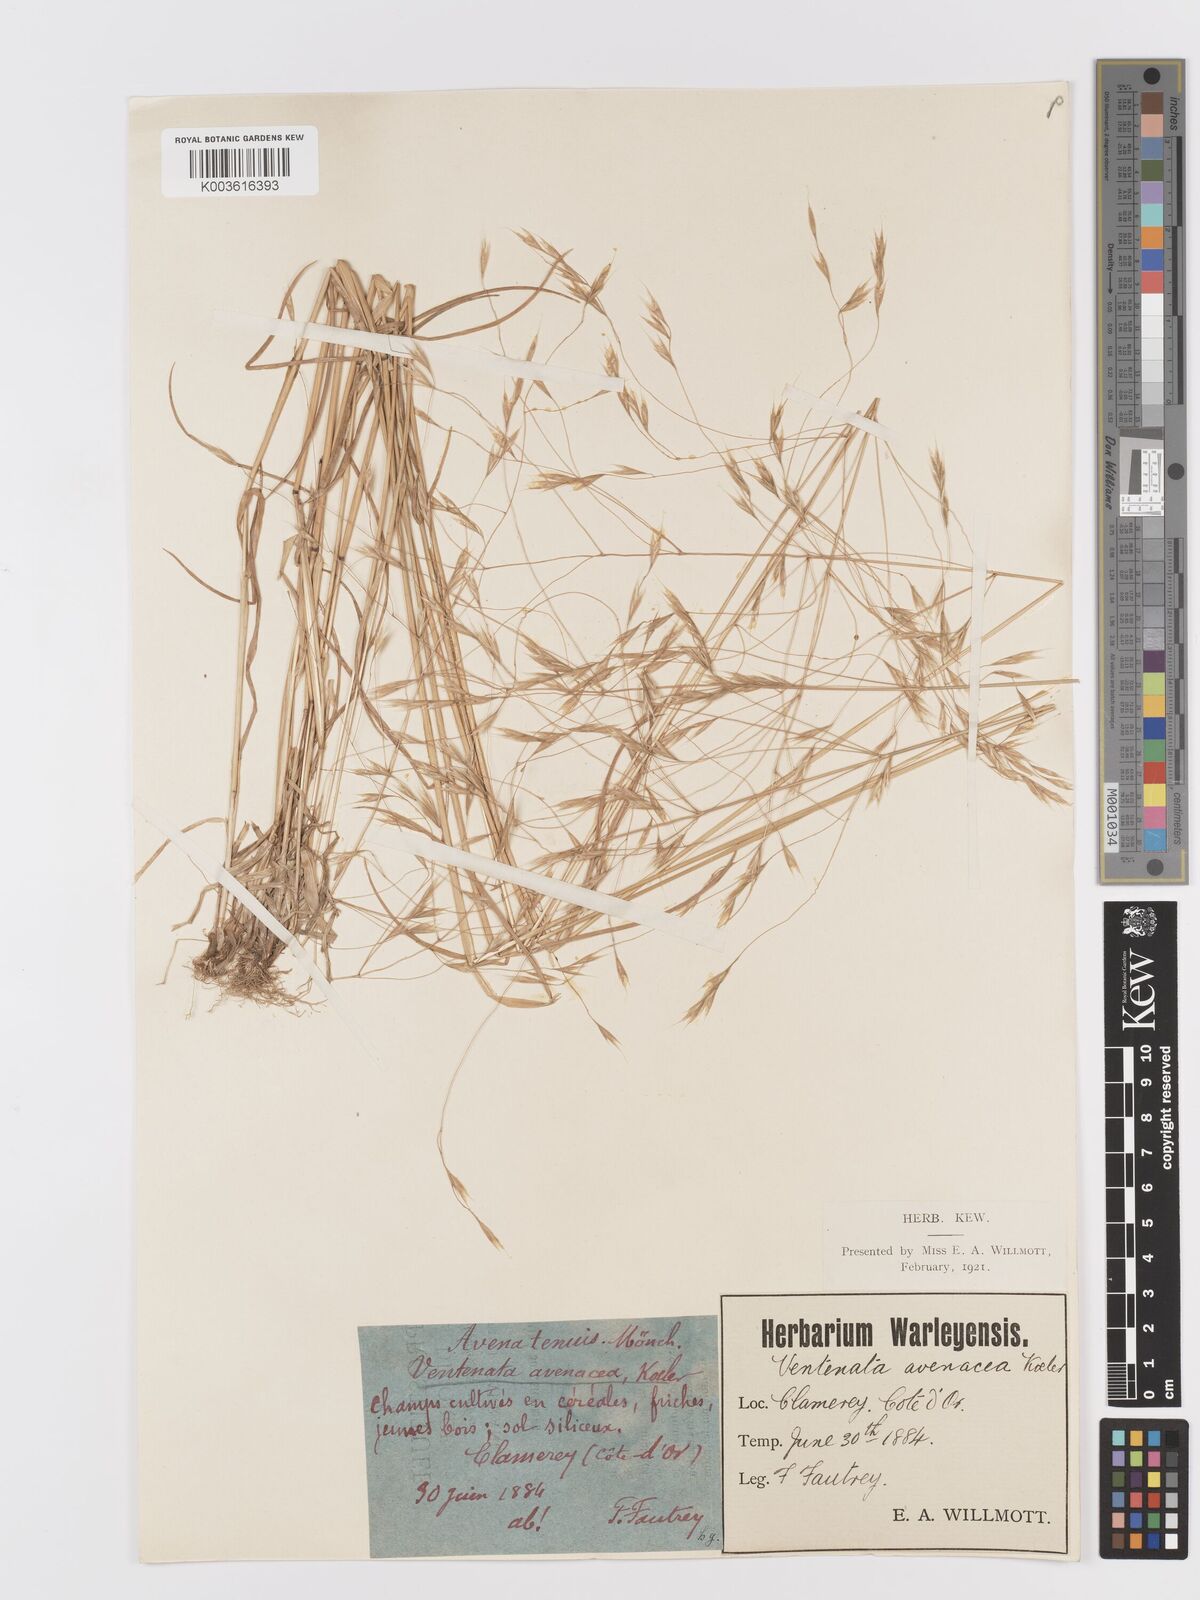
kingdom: Plantae
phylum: Tracheophyta
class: Liliopsida
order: Poales
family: Poaceae
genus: Ventenata
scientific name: Ventenata dubia
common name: North africa grass
